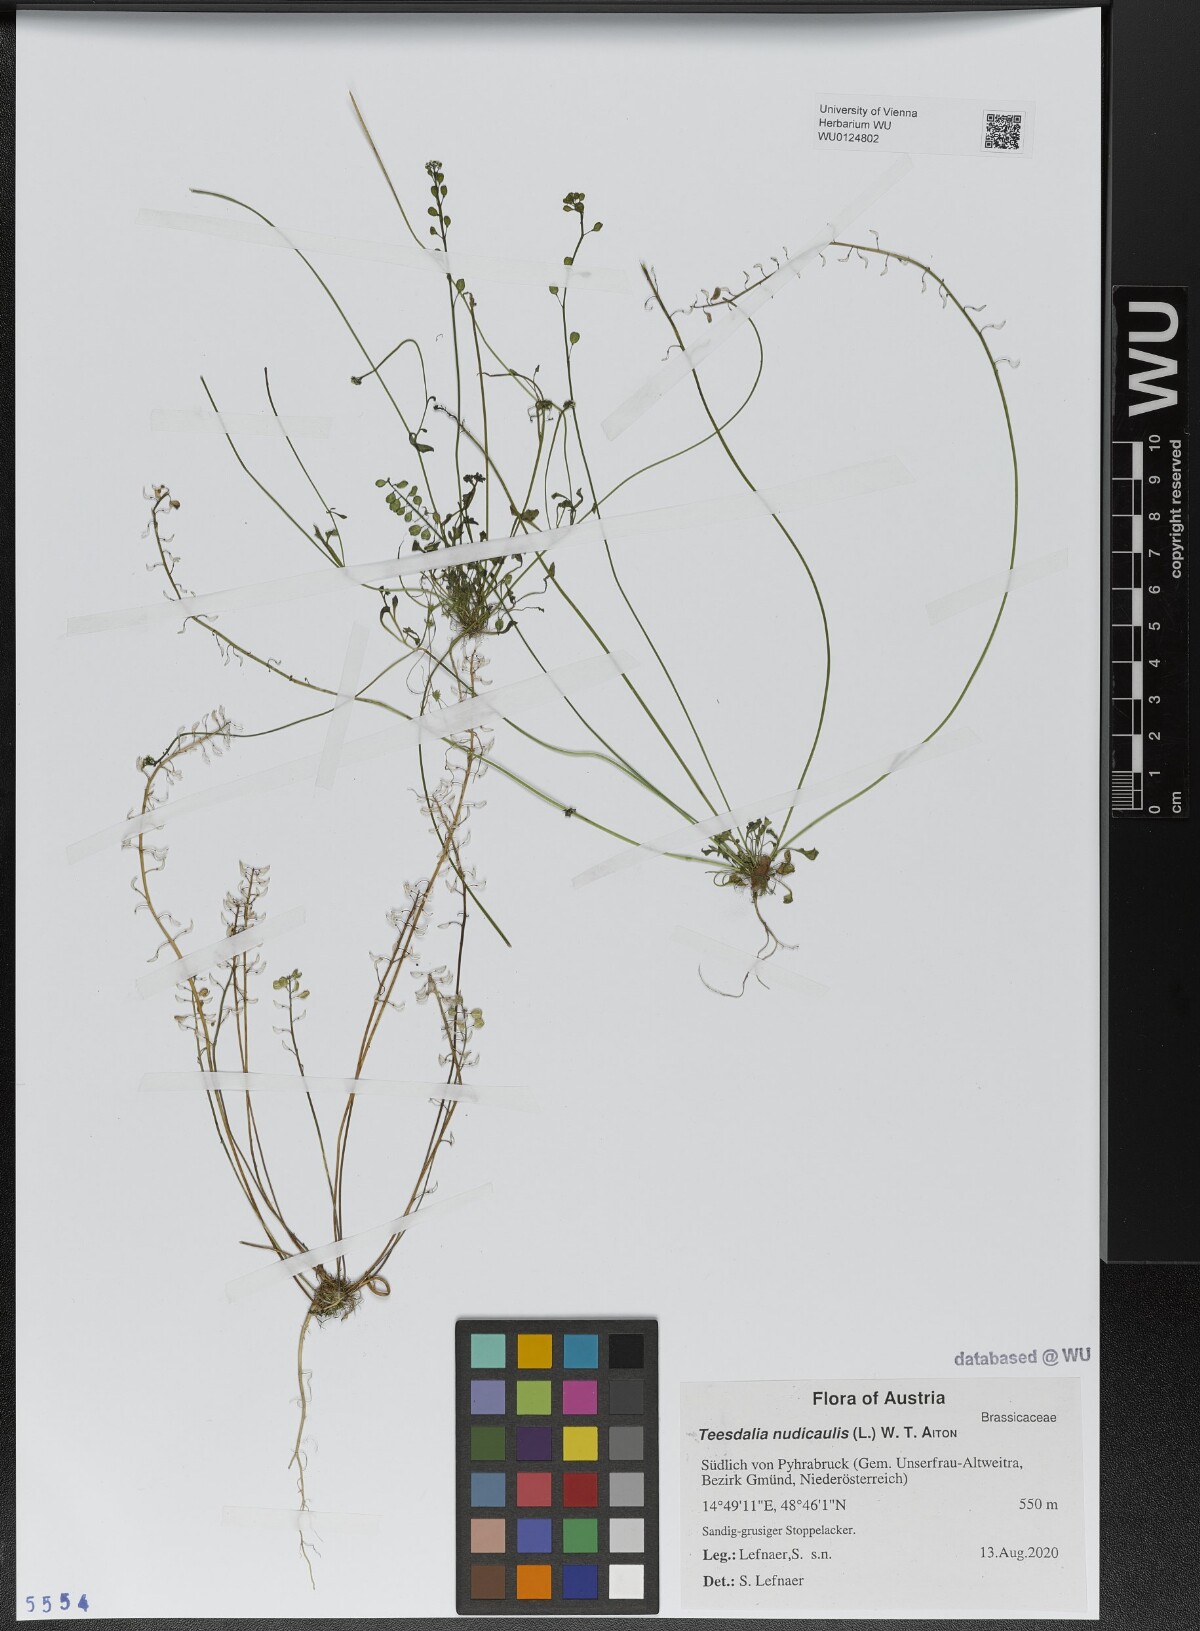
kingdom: Plantae
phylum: Tracheophyta
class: Magnoliopsida
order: Brassicales
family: Brassicaceae
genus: Teesdalia
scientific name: Teesdalia nudicaulis
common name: Shepherd's cress
